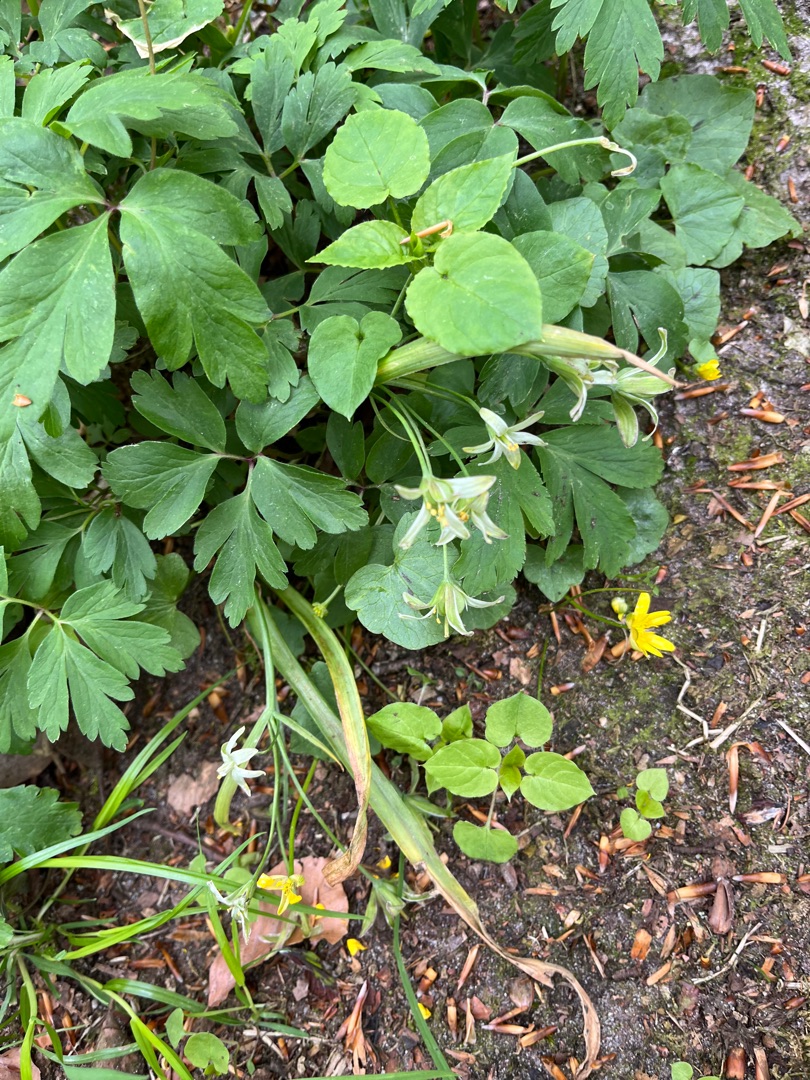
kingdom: Plantae
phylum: Tracheophyta
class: Liliopsida
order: Liliales
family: Liliaceae
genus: Gagea
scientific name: Gagea lutea
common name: Almindelig guldstjerne
